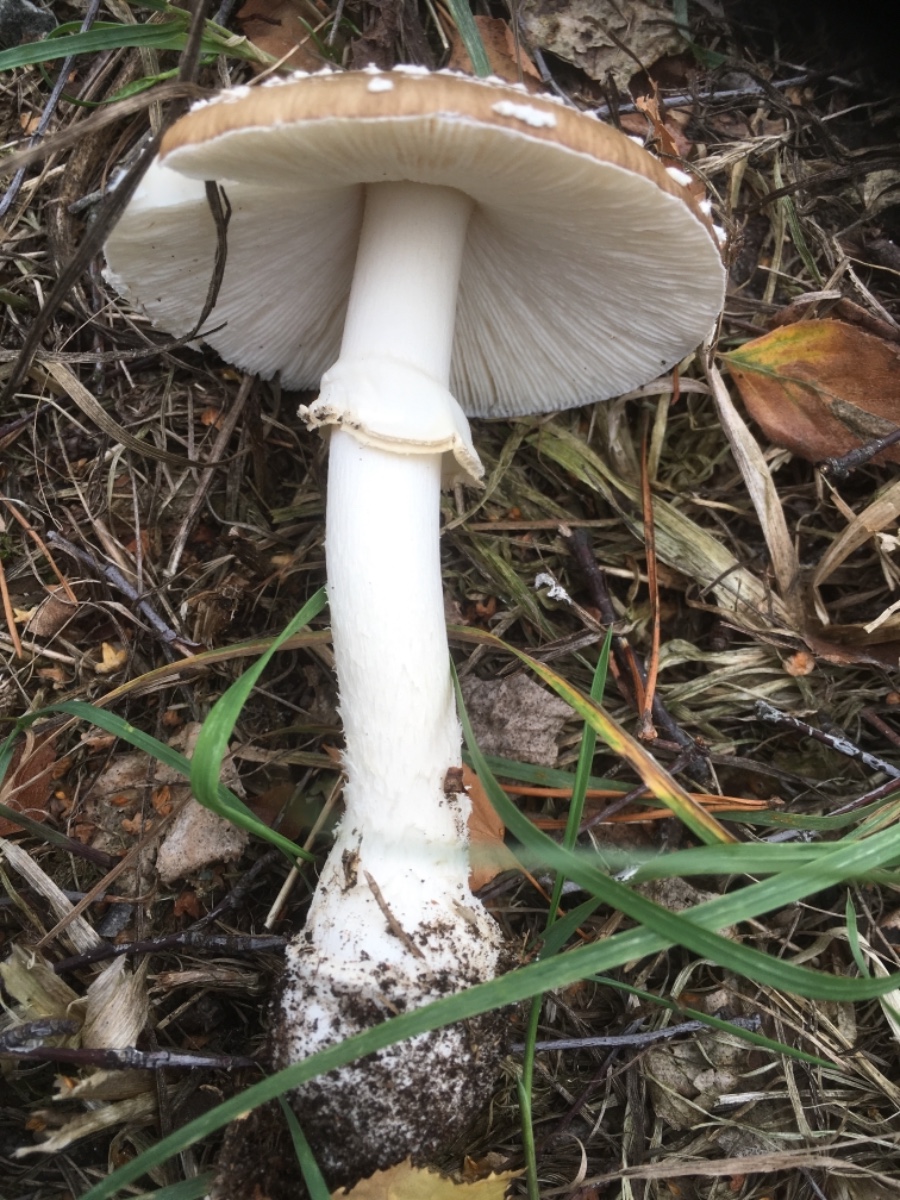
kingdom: Fungi
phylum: Basidiomycota
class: Agaricomycetes
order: Agaricales
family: Amanitaceae
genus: Amanita
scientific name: Amanita pantherina
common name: panter-fluesvamp
